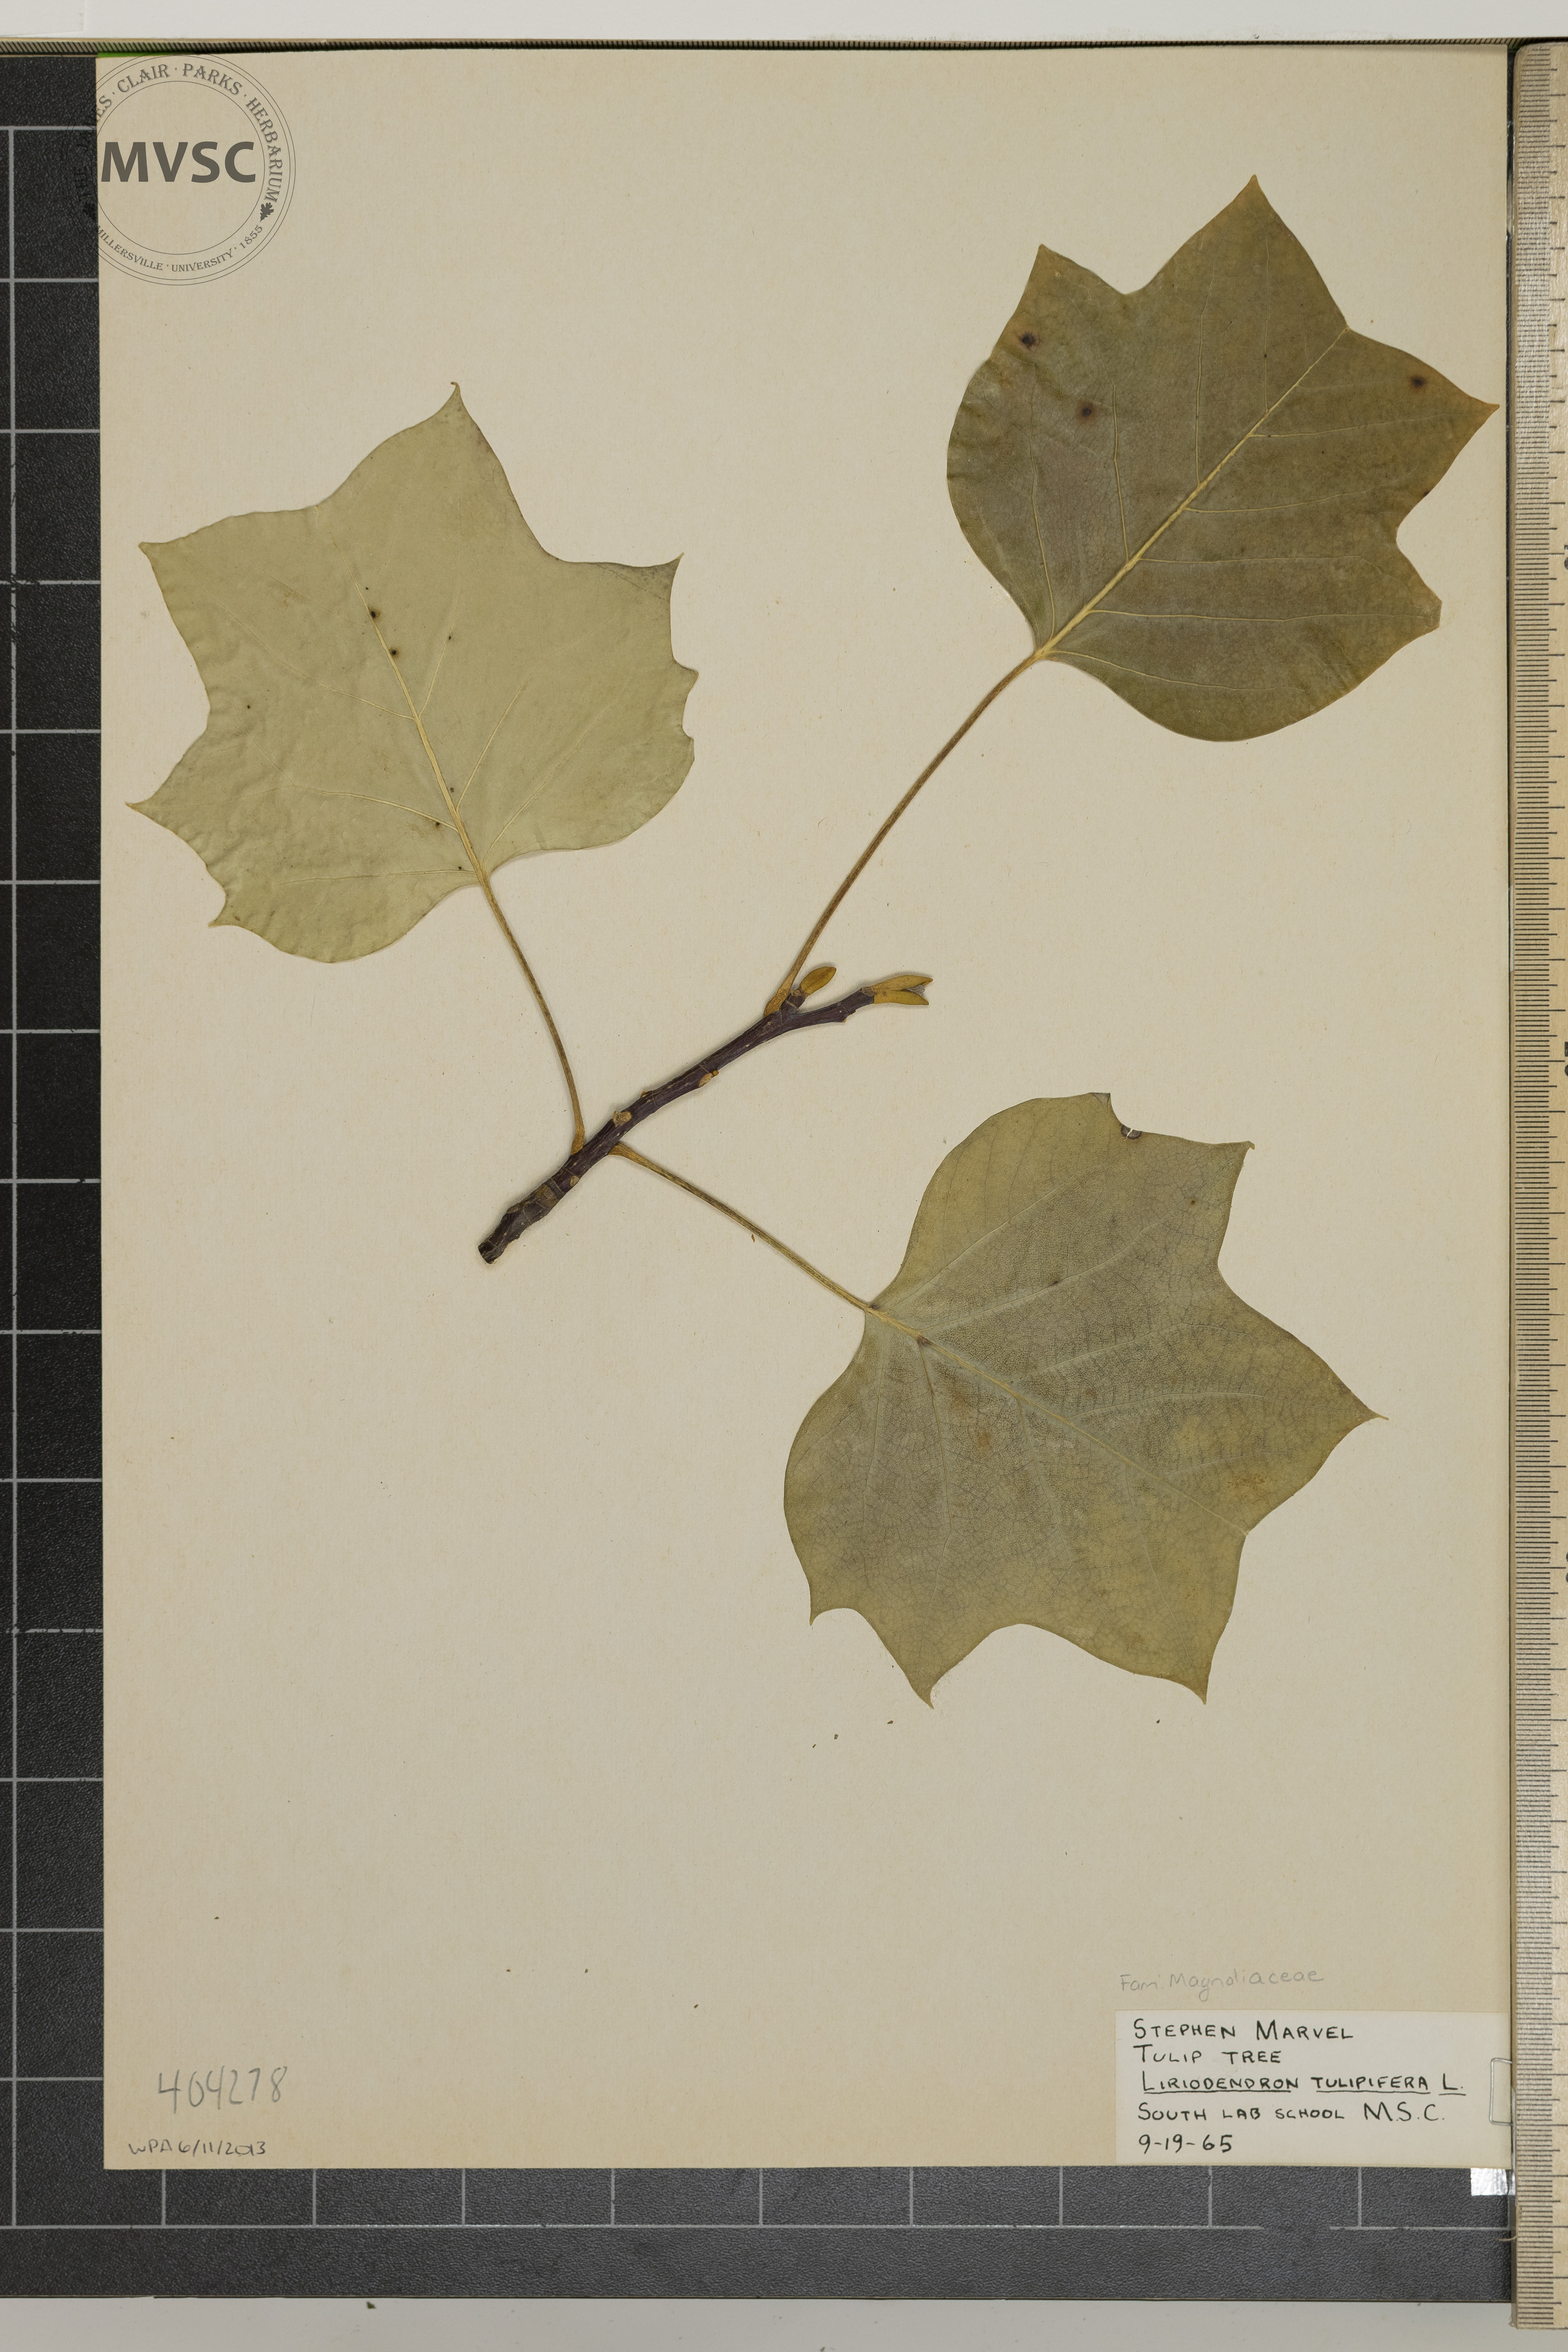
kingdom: Plantae
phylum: Tracheophyta
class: Magnoliopsida
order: Magnoliales
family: Magnoliaceae
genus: Liriodendron
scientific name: Liriodendron tulipifera
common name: Tulip Tree
